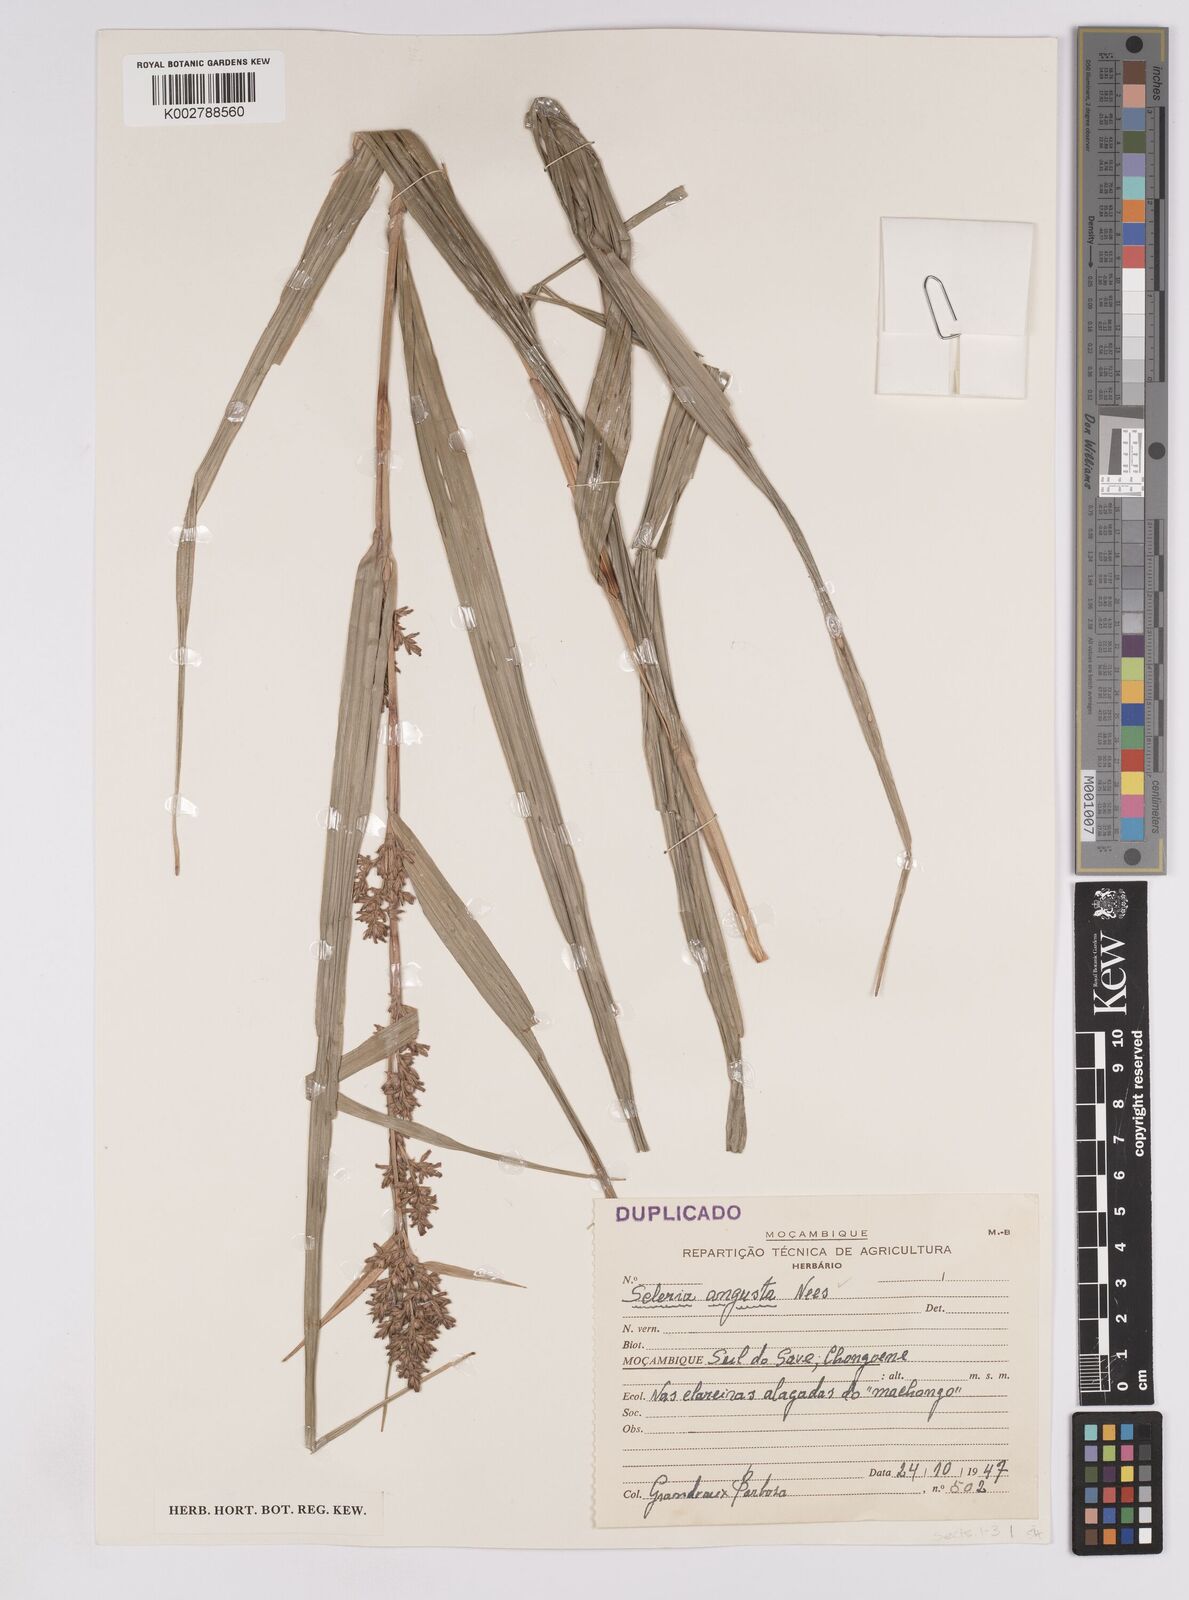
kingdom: Plantae
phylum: Tracheophyta
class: Liliopsida
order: Poales
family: Cyperaceae
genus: Scleria
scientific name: Scleria angusta
